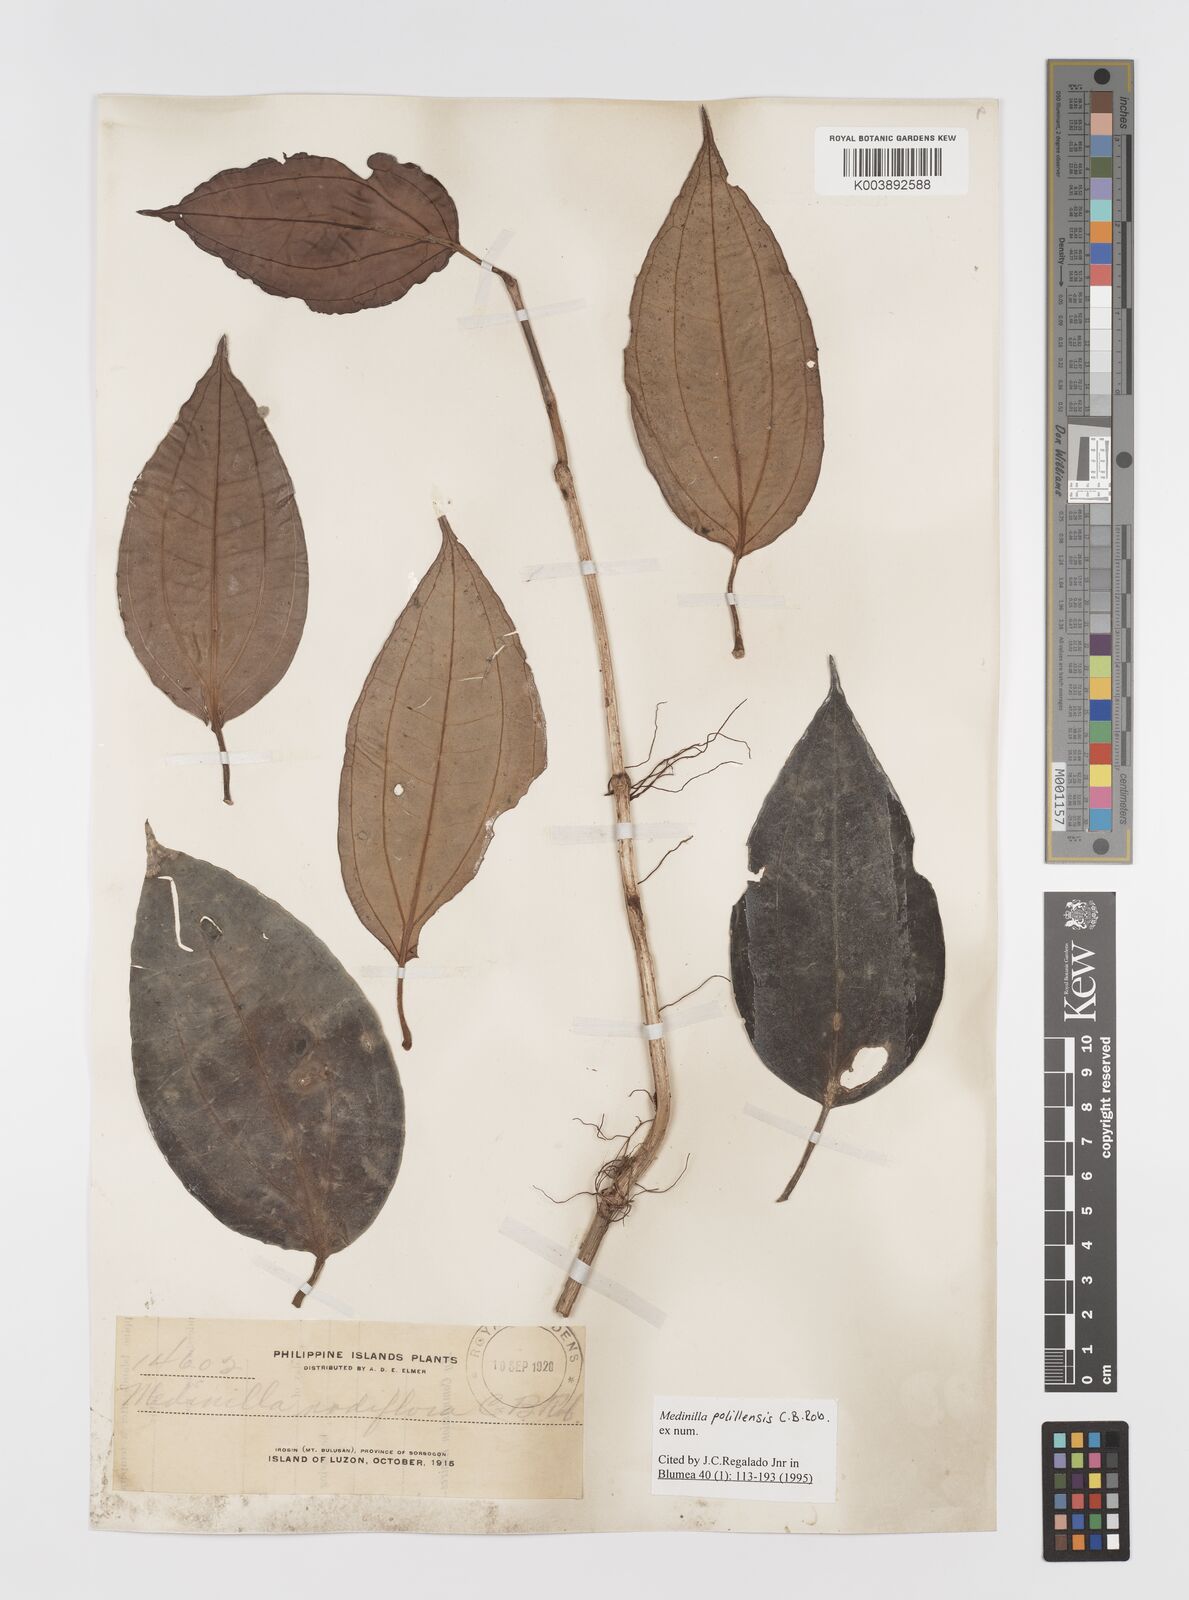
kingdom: Plantae
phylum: Tracheophyta
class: Magnoliopsida
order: Myrtales
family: Melastomataceae
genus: Medinilla
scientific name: Medinilla polillensis
